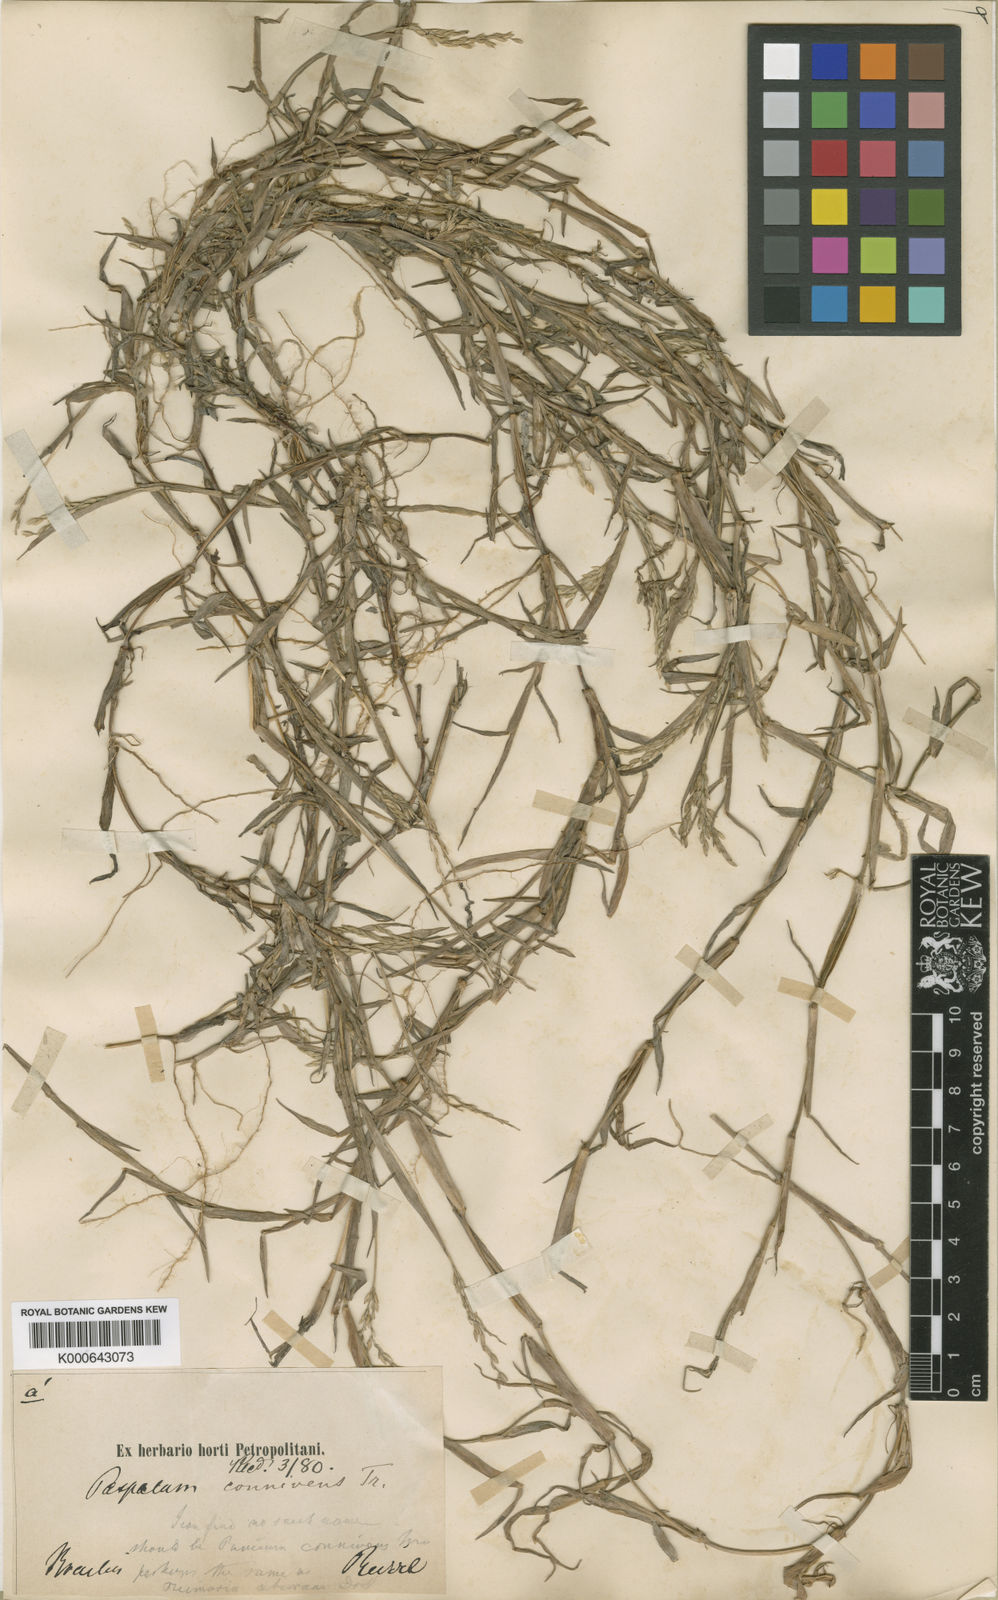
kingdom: Plantae
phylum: Tracheophyta
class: Liliopsida
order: Poales
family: Poaceae
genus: Digitaria
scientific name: Digitaria connivens
